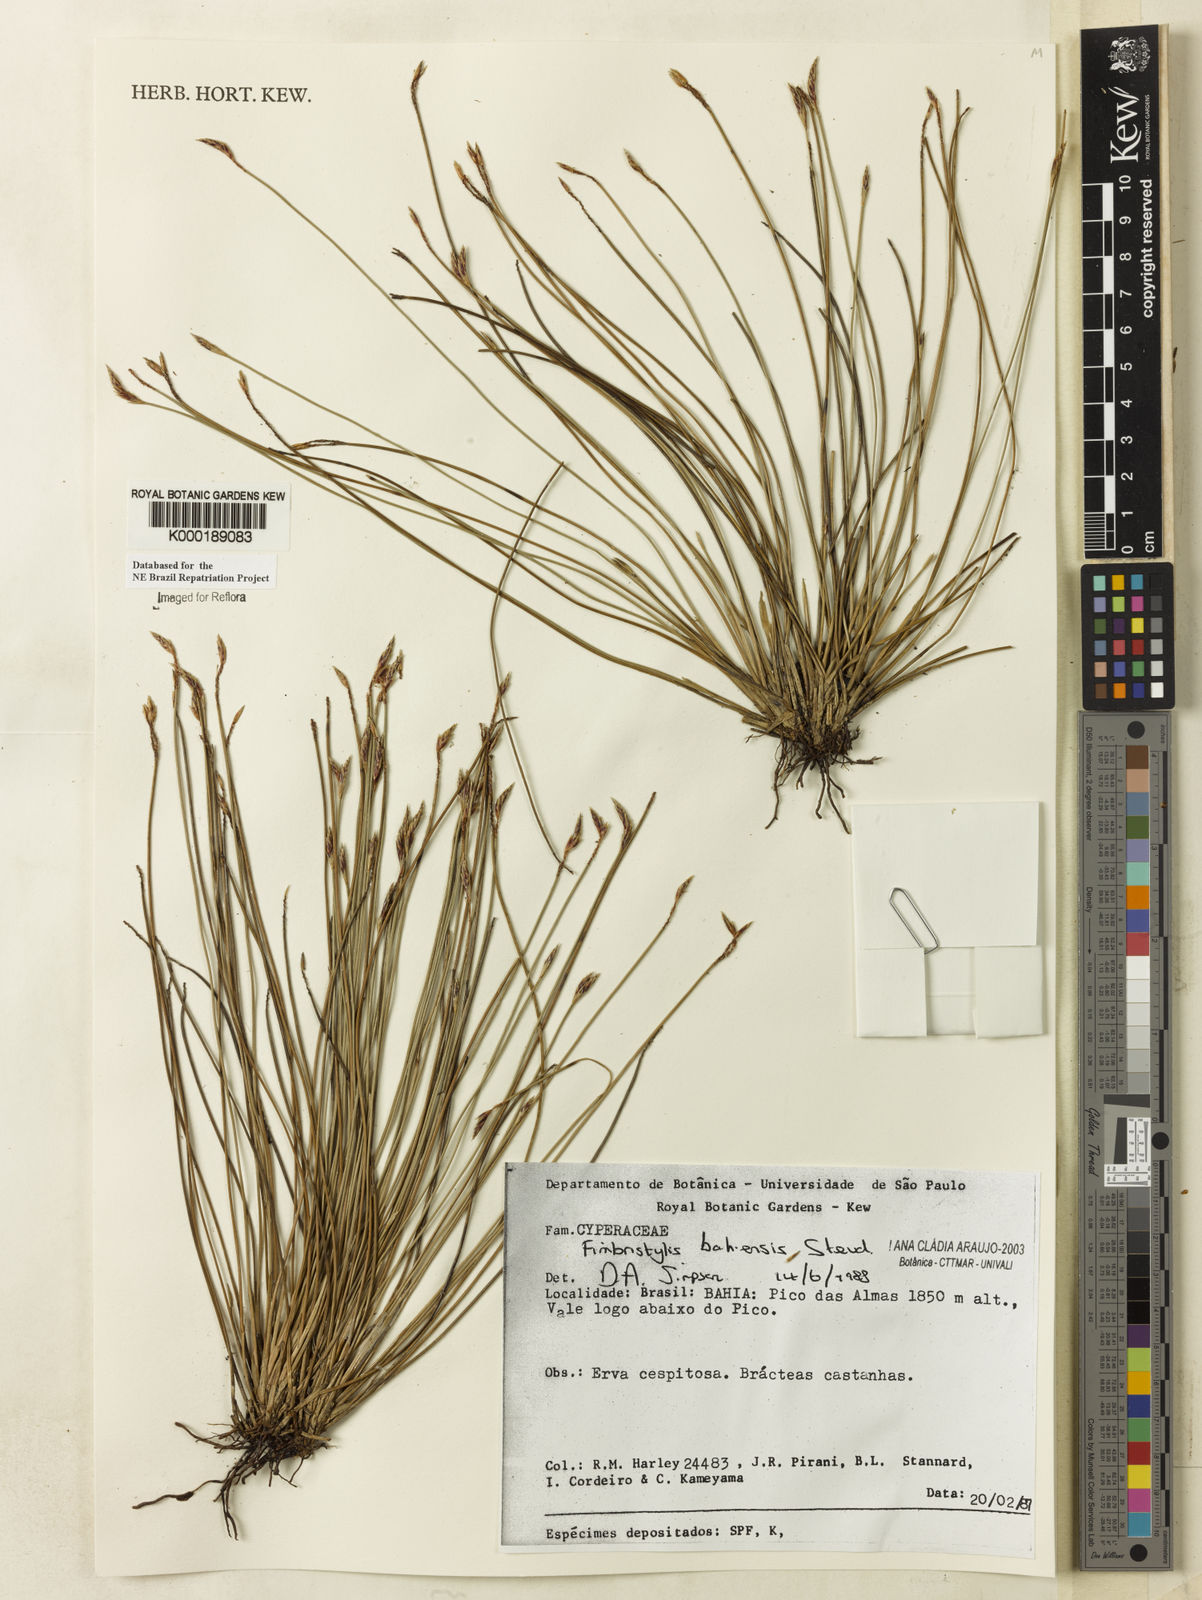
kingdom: Plantae
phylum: Tracheophyta
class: Liliopsida
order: Poales
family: Cyperaceae
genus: Fimbristylis
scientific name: Fimbristylis bahiensis
